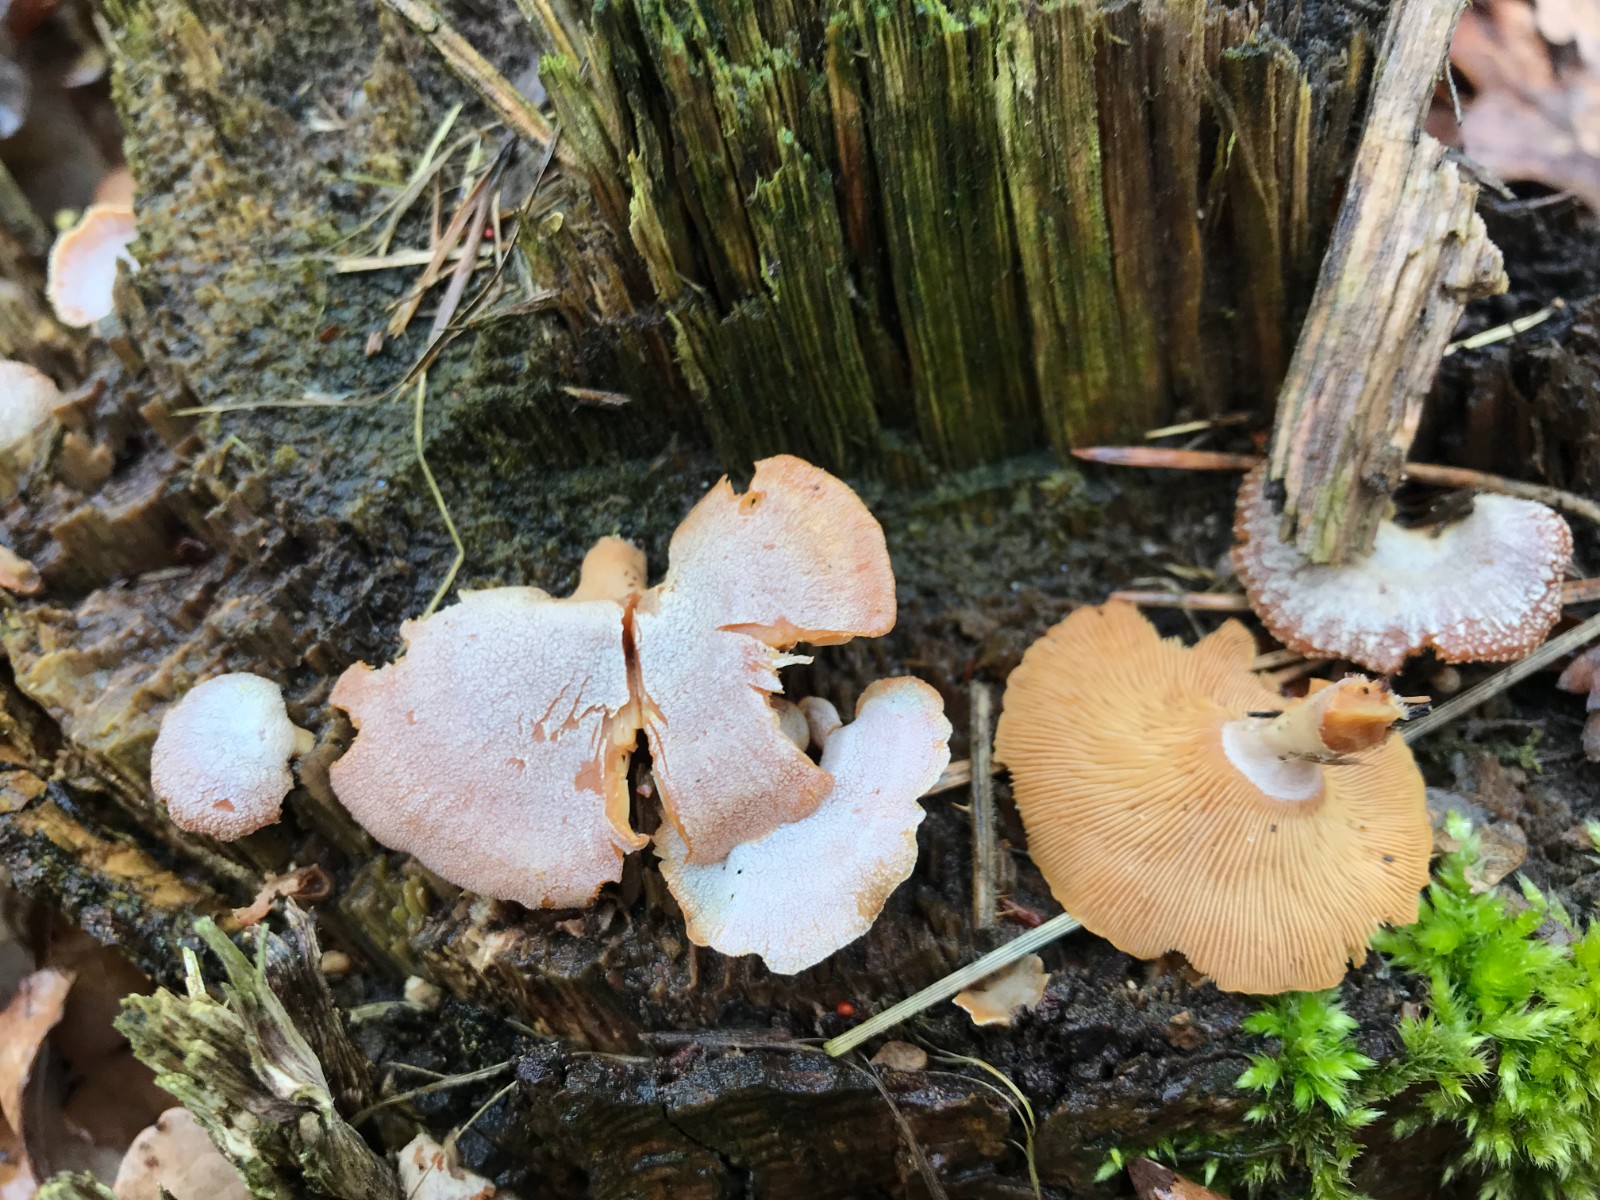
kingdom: Fungi
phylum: Basidiomycota
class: Agaricomycetes
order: Agaricales
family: Mycenaceae
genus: Panellus
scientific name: Panellus stipticus
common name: kliddet epaulethat
